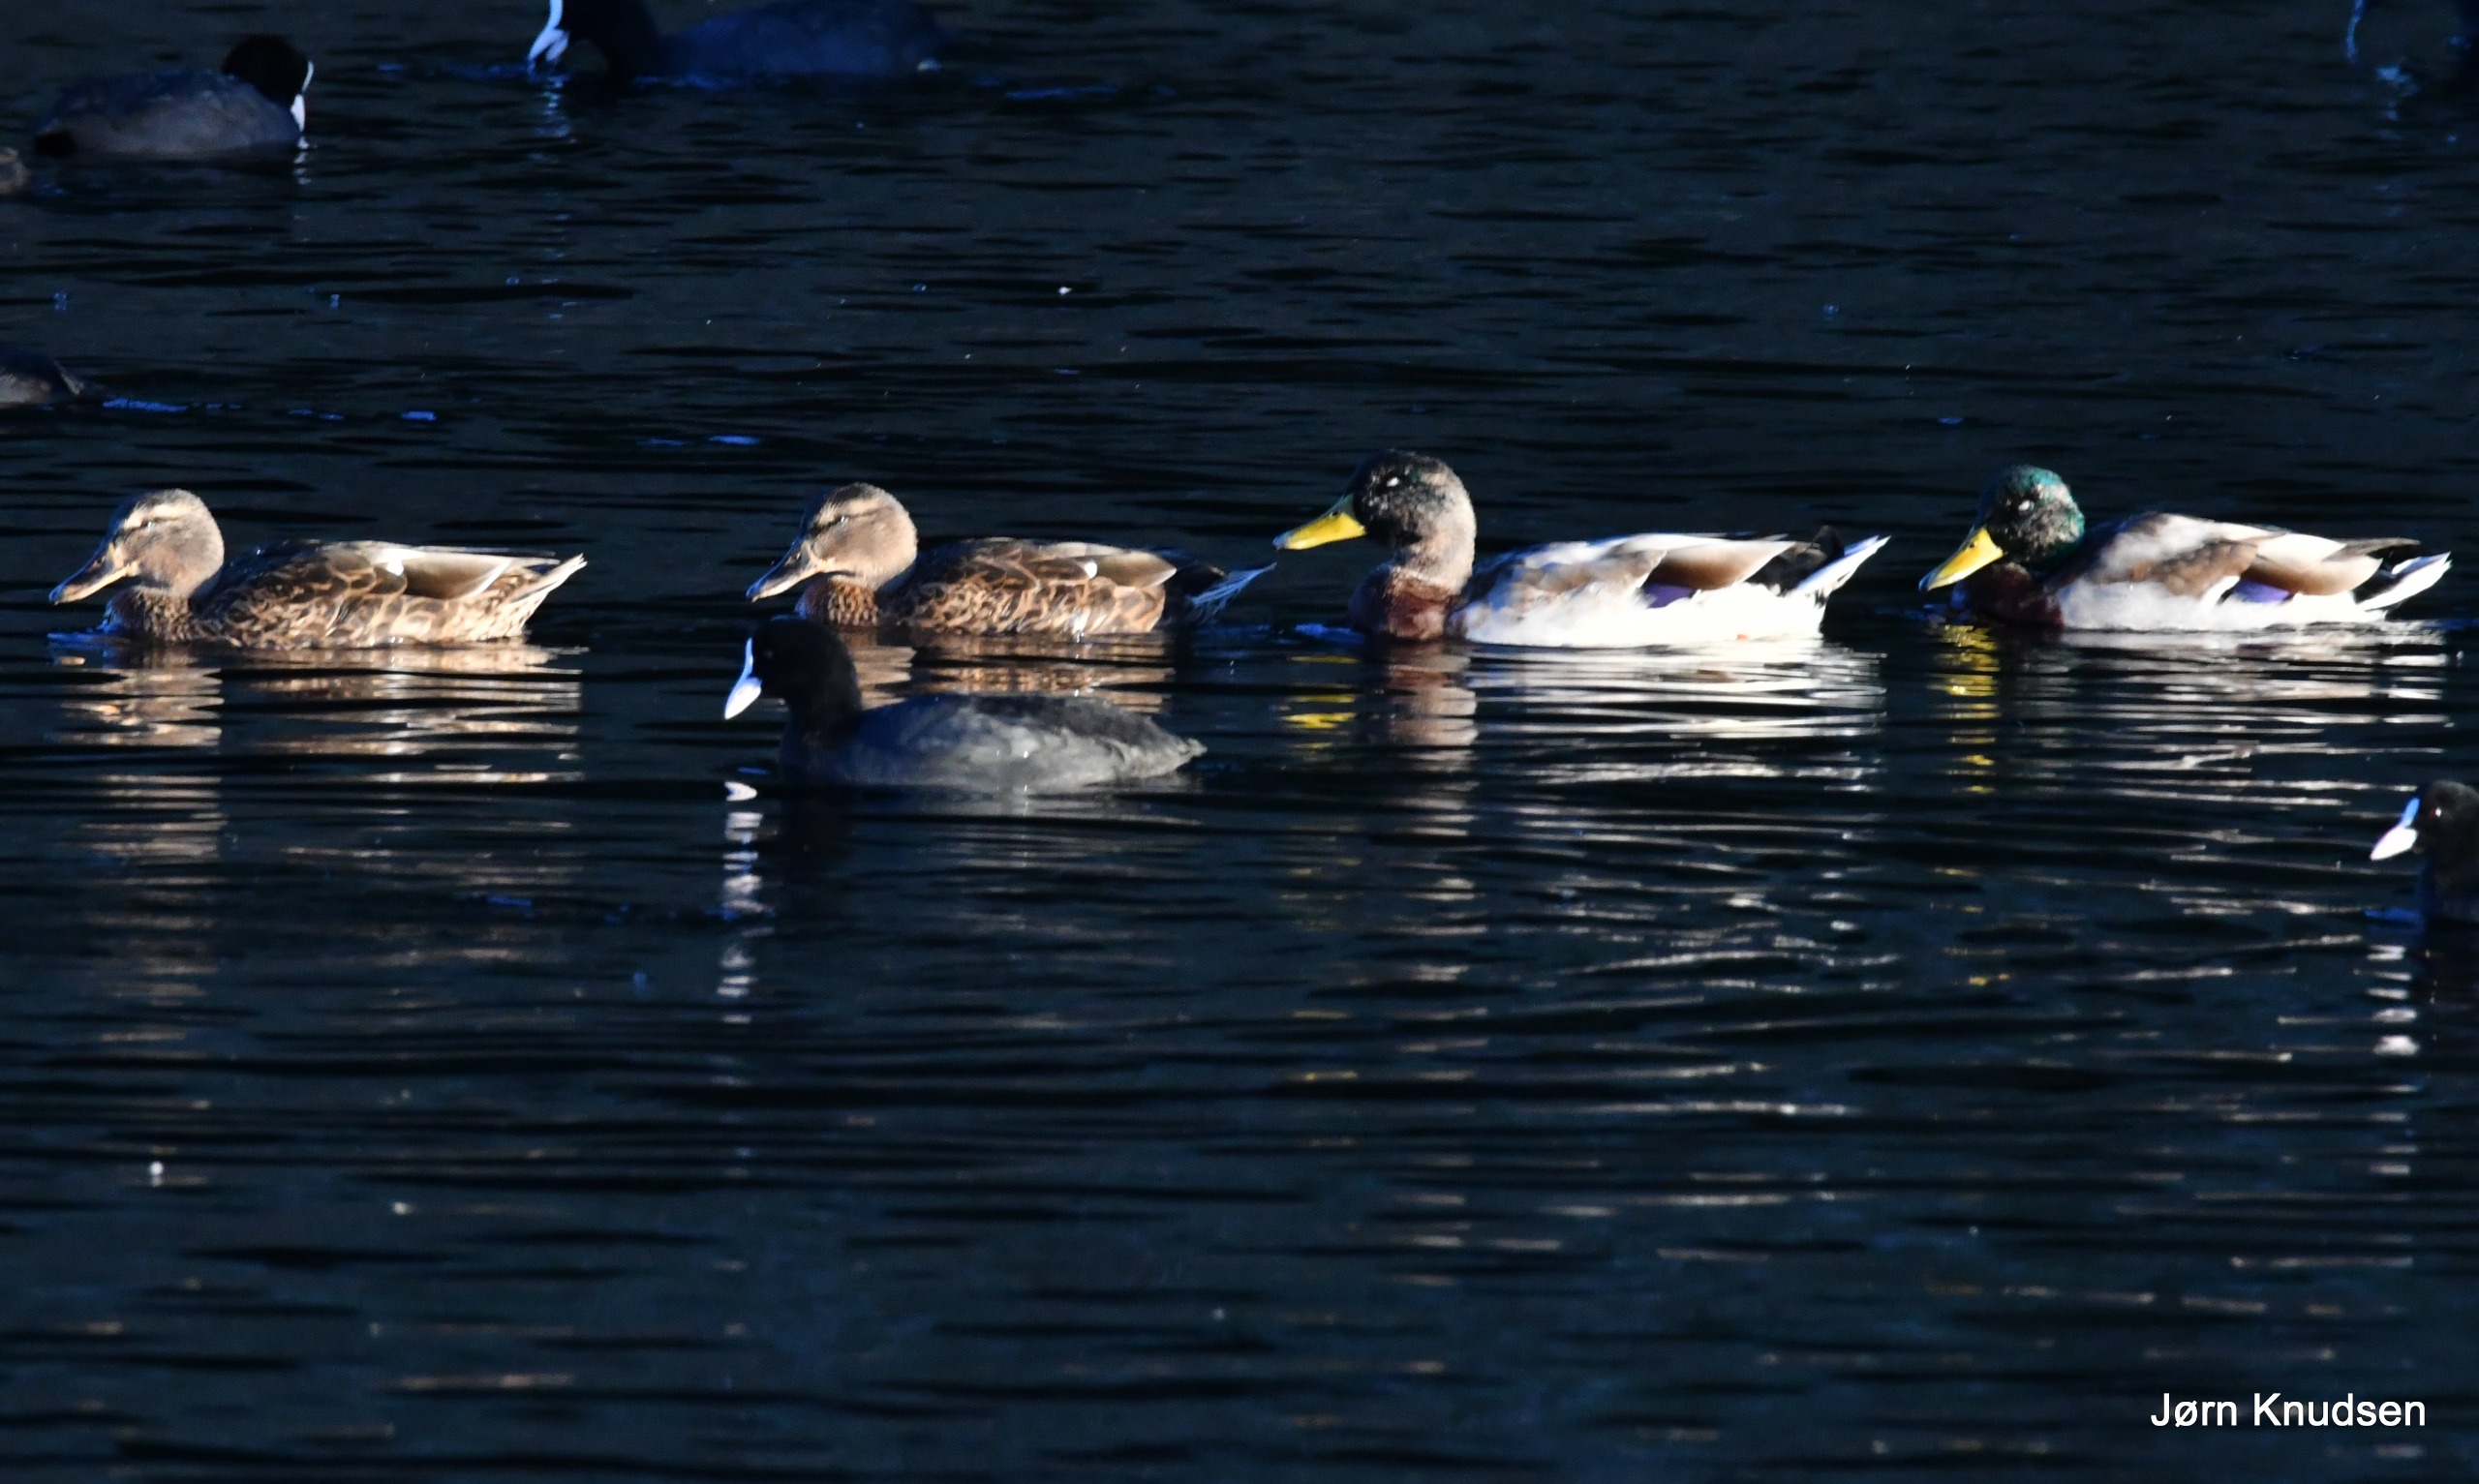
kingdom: Animalia
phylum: Chordata
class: Aves
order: Anseriformes
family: Anatidae
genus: Anas
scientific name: Anas platyrhynchos
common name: Gråand
